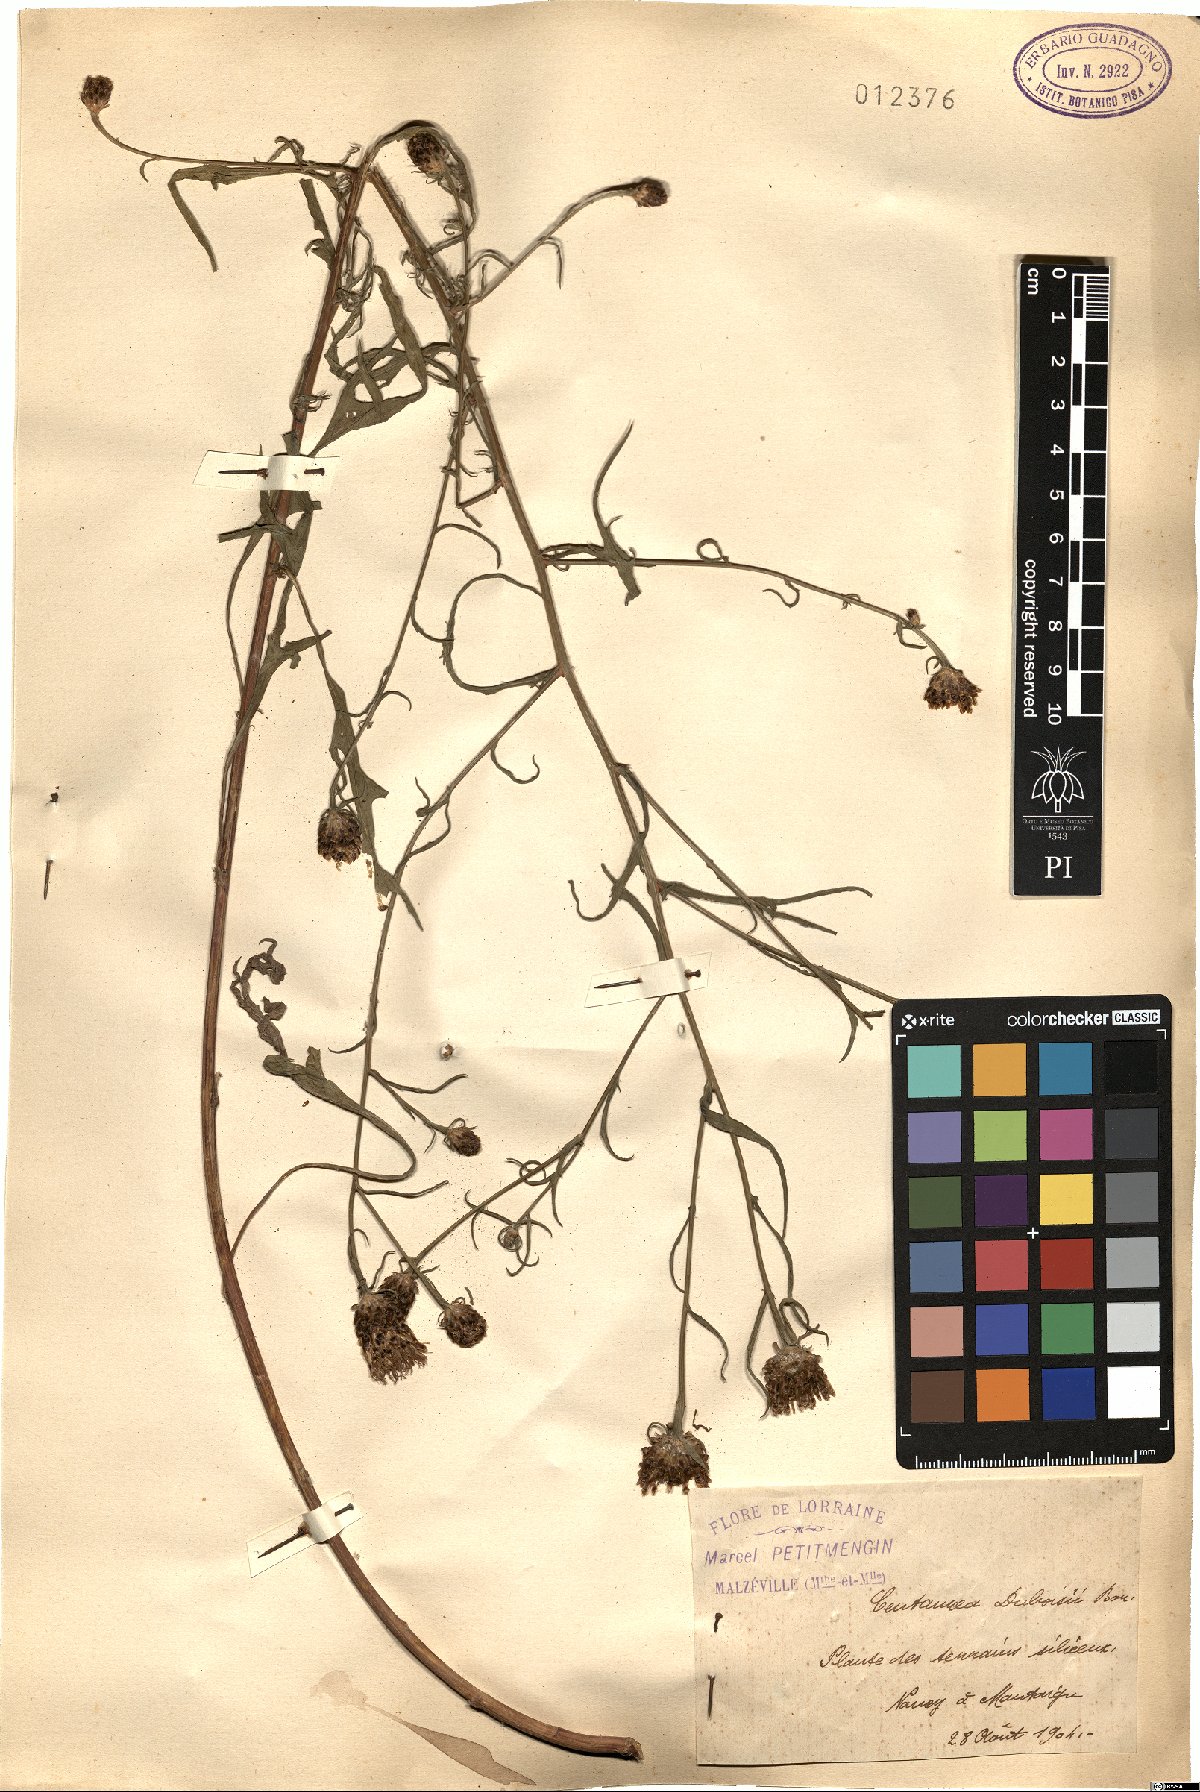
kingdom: Plantae
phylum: Tracheophyta
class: Magnoliopsida
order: Asterales
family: Asteraceae
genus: Centaurea
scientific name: Centaurea pannonica
